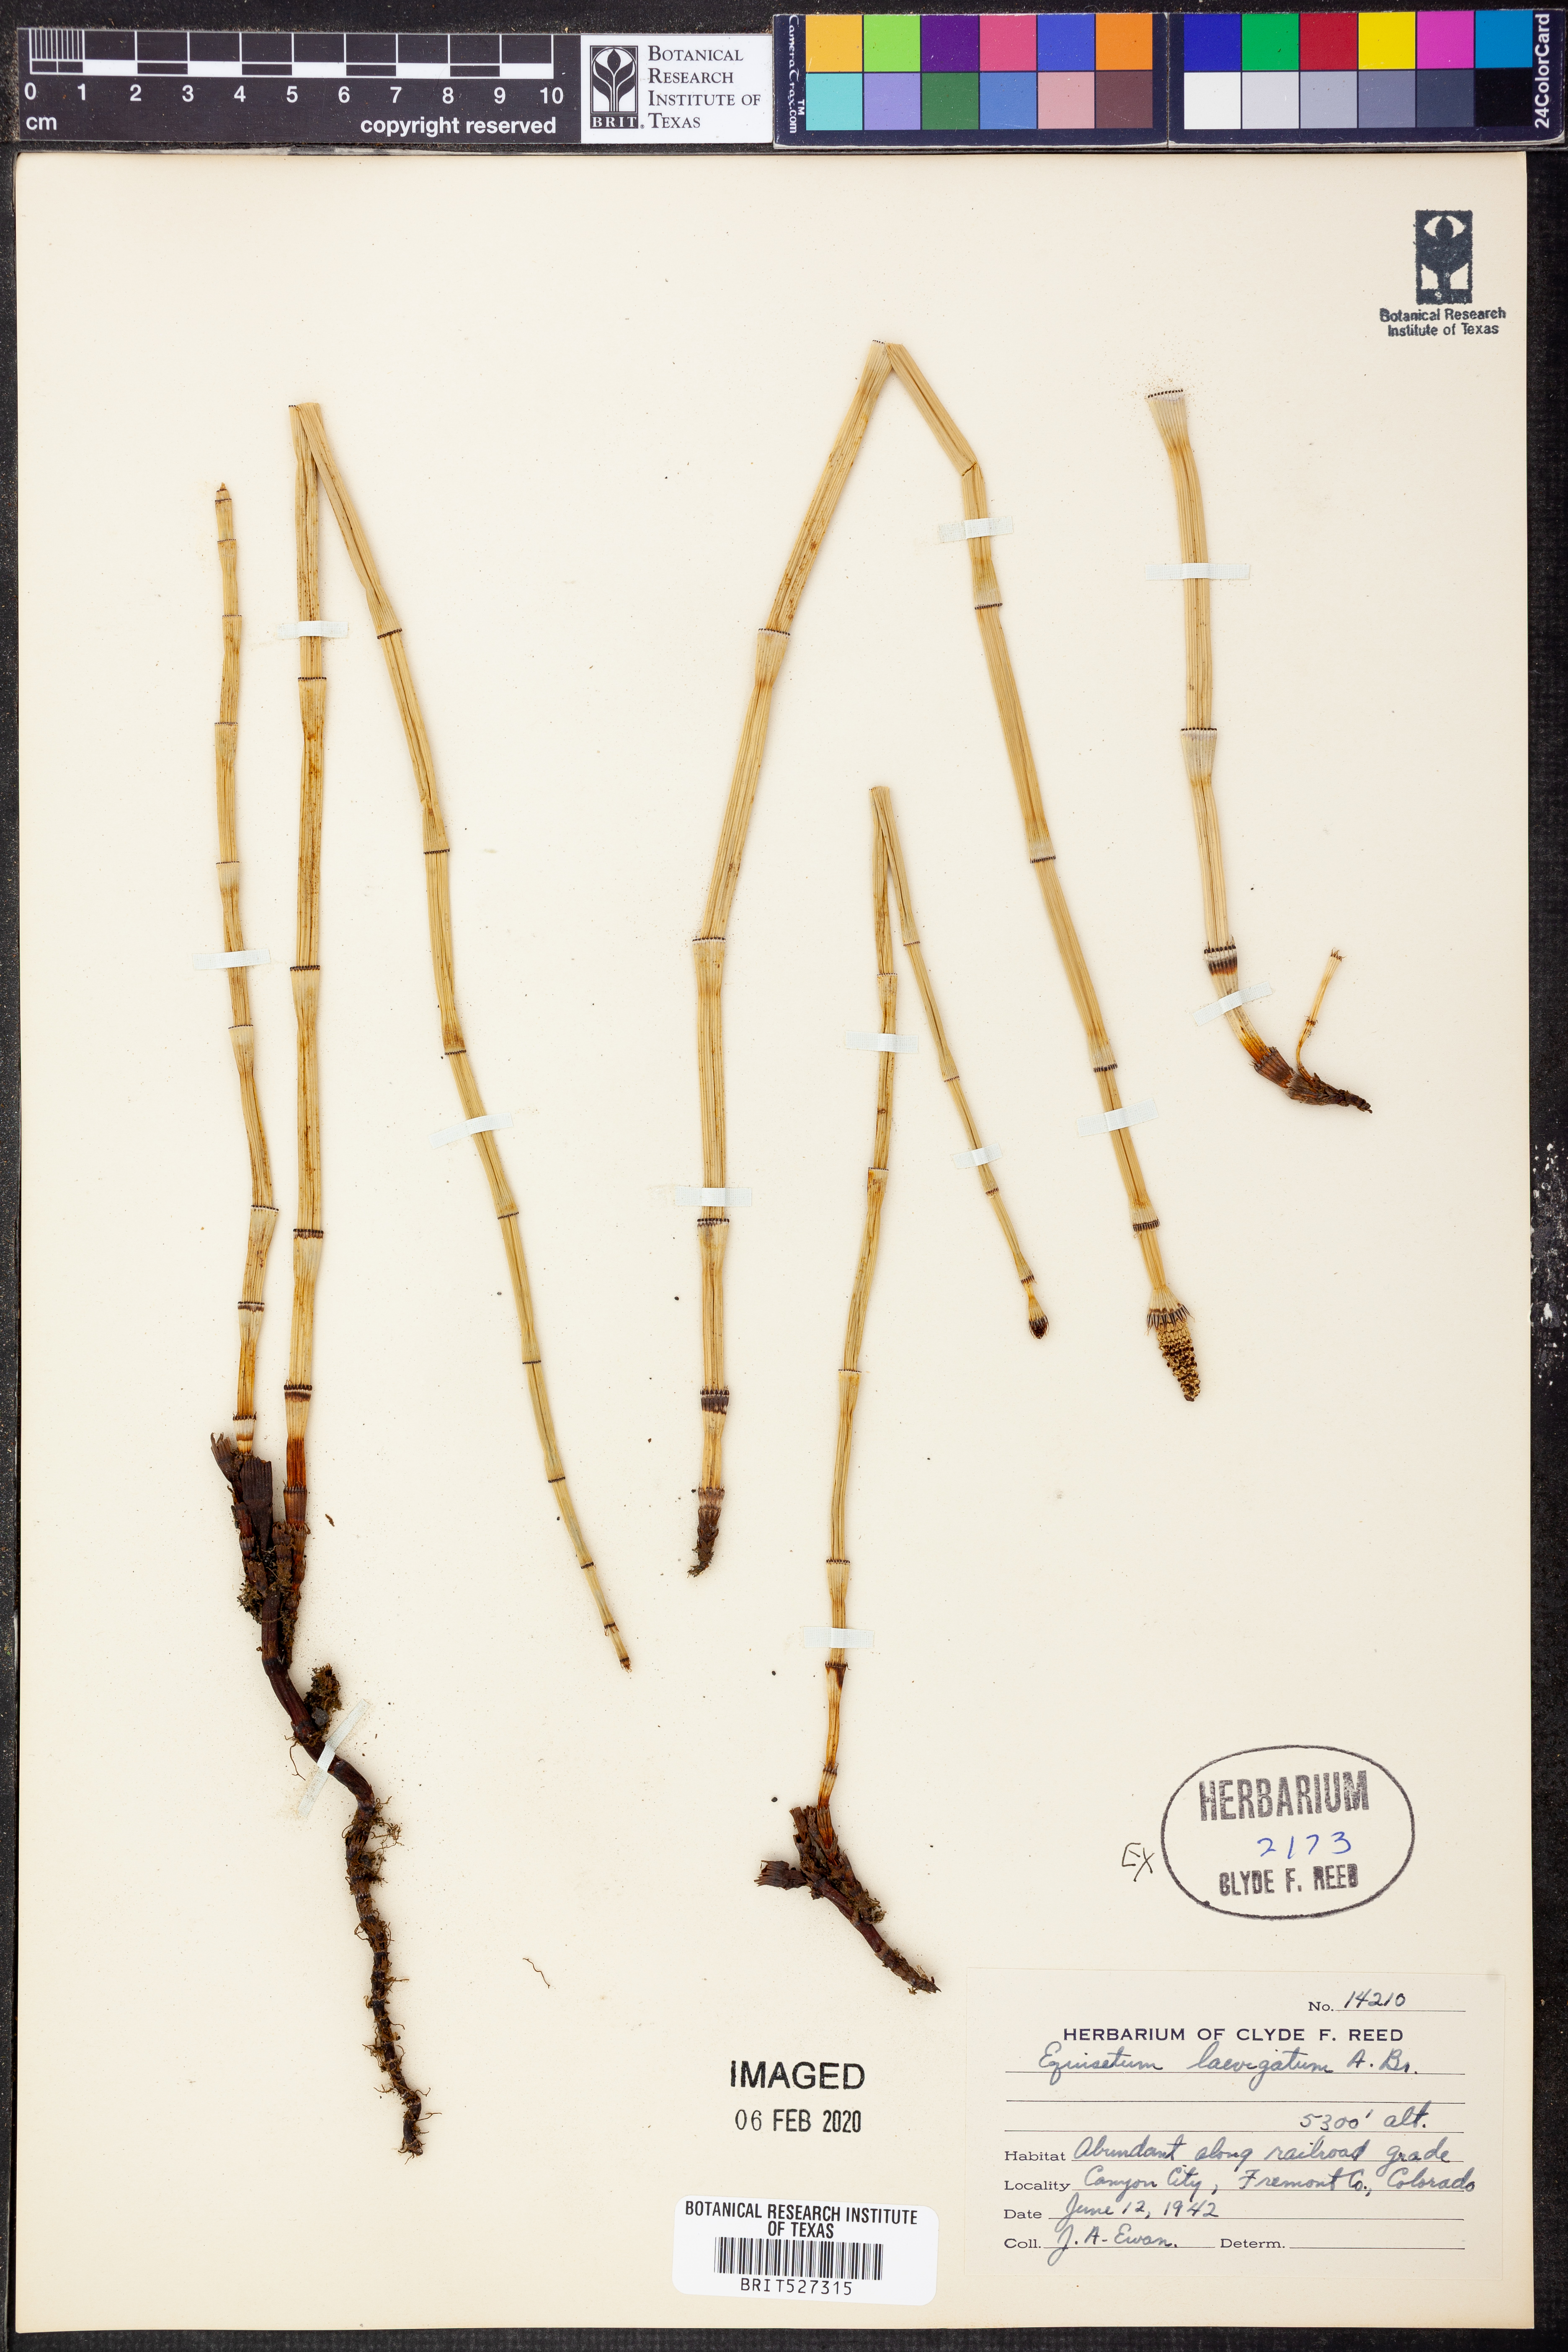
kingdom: Plantae
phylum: Tracheophyta
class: Polypodiopsida
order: Equisetales
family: Equisetaceae
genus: Equisetum
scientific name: Equisetum laevigatum
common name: Smooth scouring-rush
